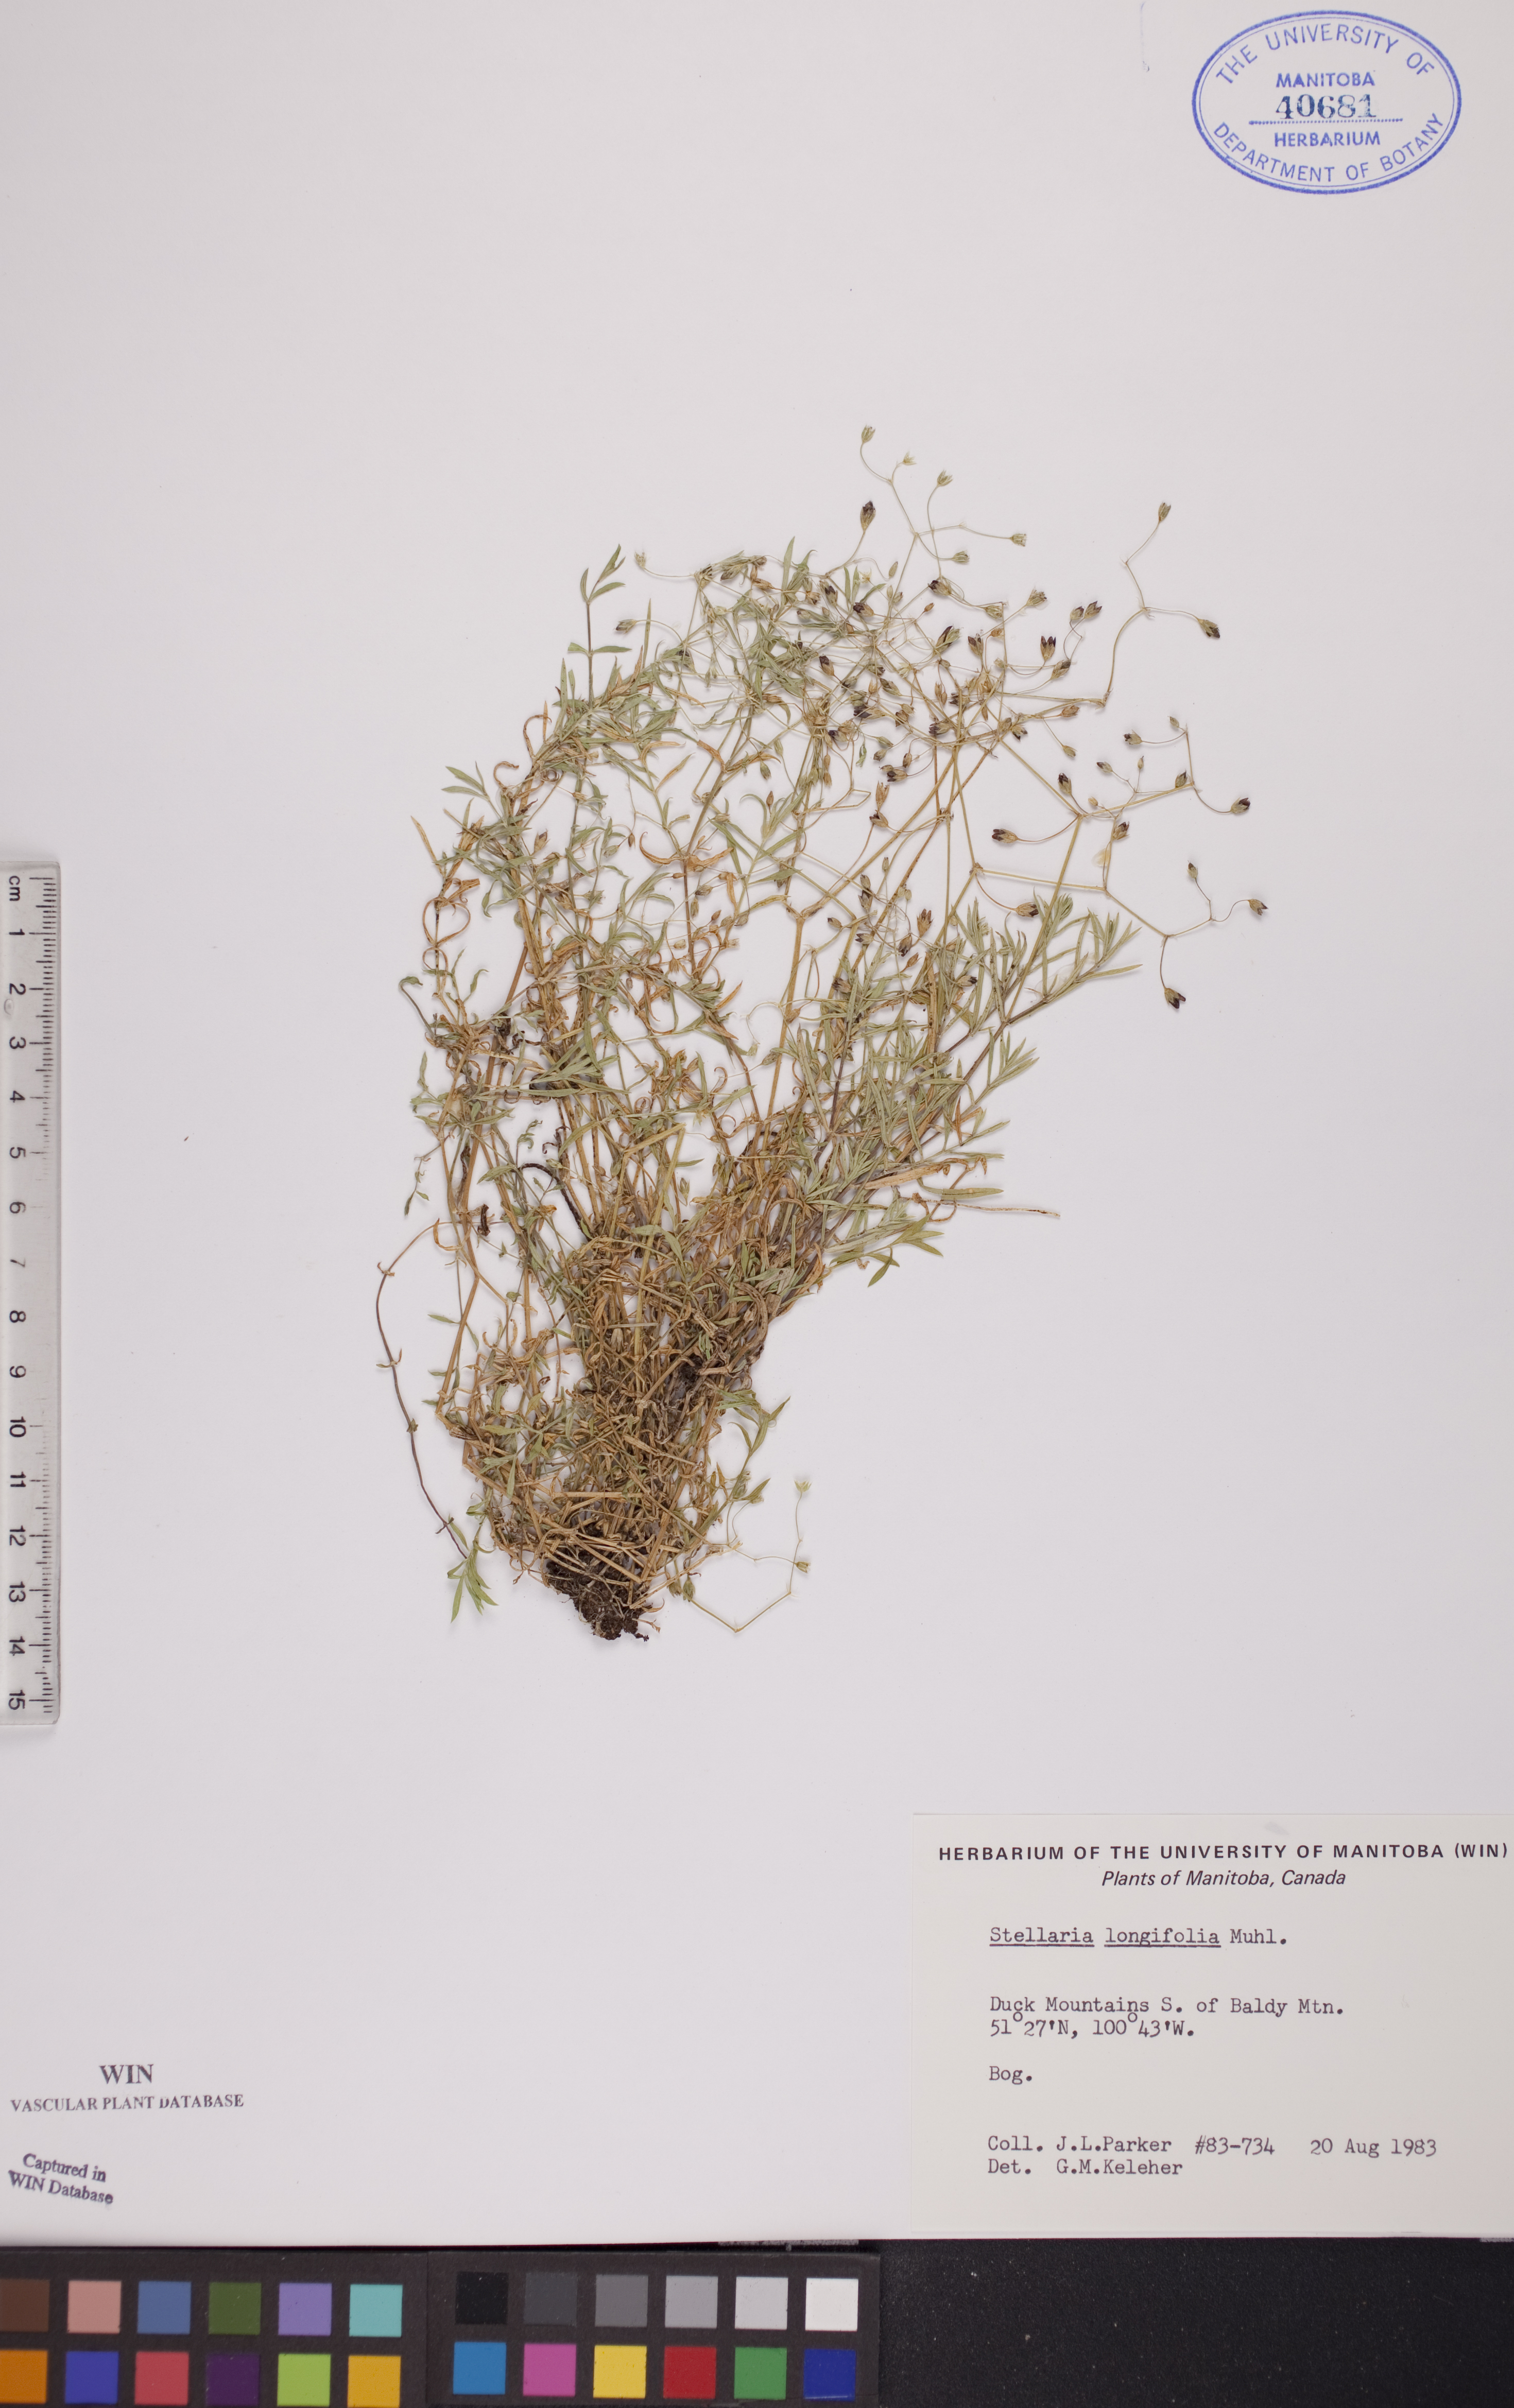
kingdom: Plantae
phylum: Tracheophyta
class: Magnoliopsida
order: Caryophyllales
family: Caryophyllaceae
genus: Stellaria
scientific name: Stellaria longifolia
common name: Long-leaved chickweed
